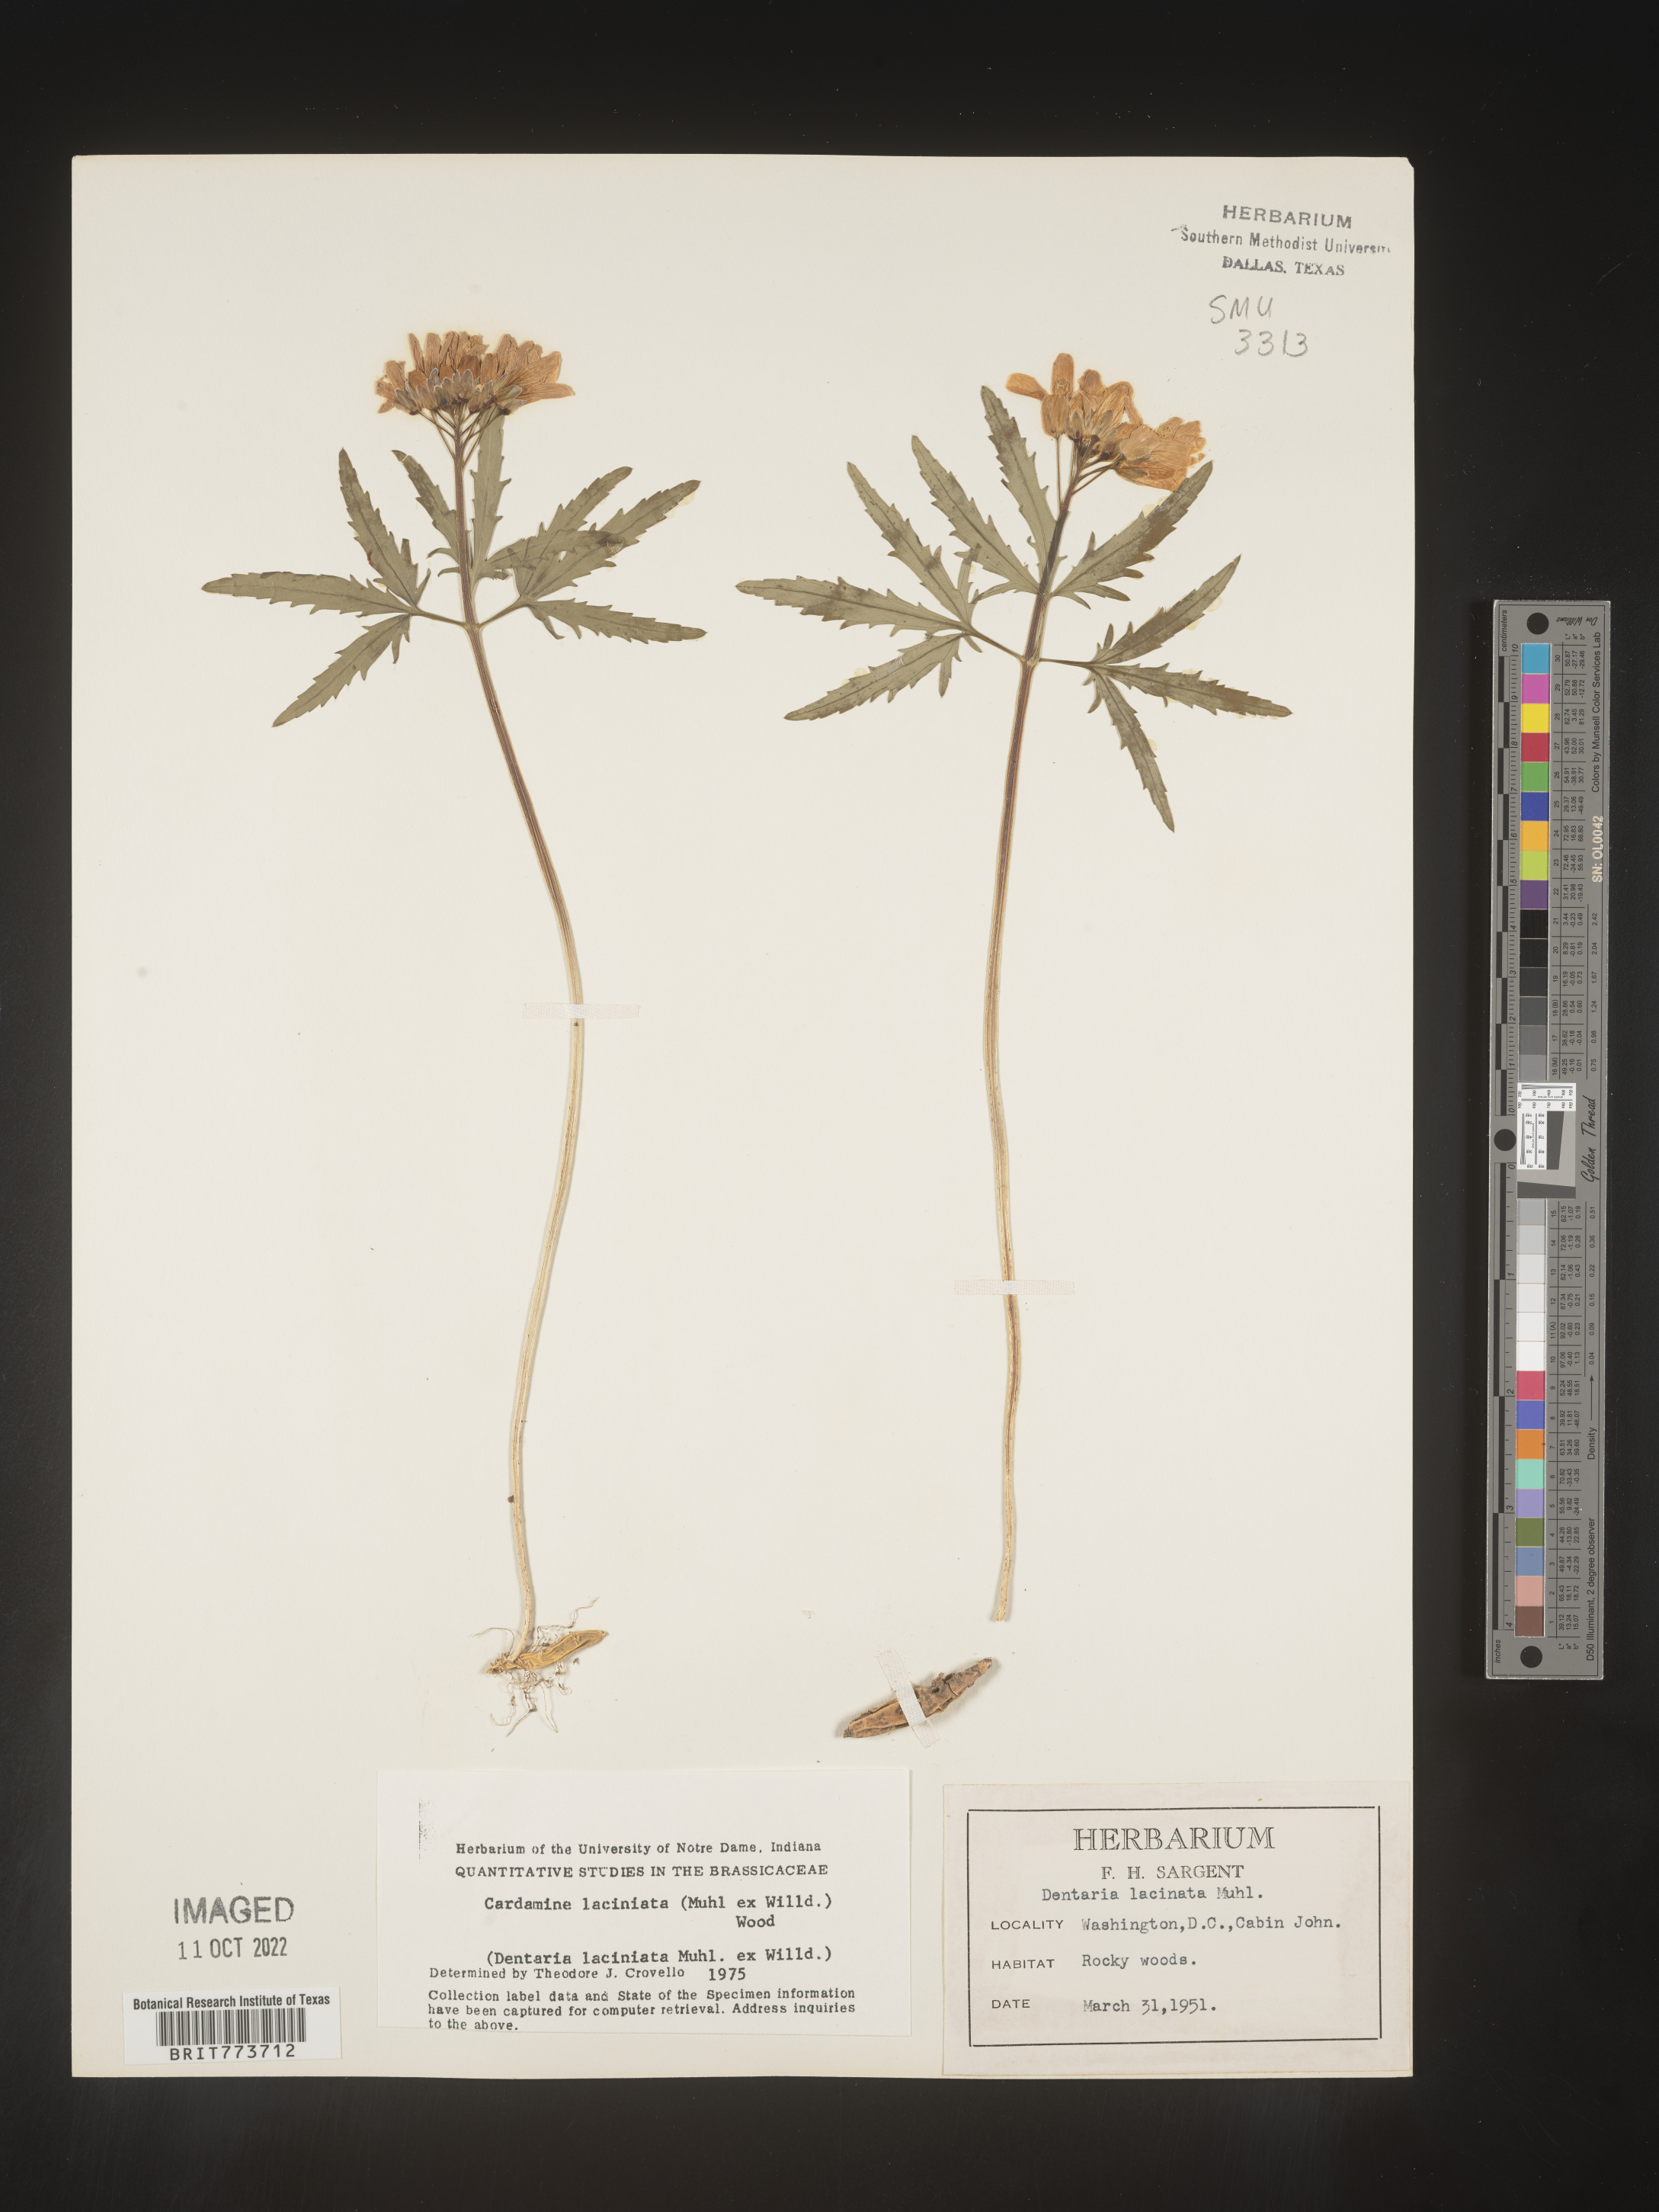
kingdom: Plantae
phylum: Tracheophyta
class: Magnoliopsida
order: Brassicales
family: Brassicaceae
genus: Rorippa
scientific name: Rorippa laciniata
